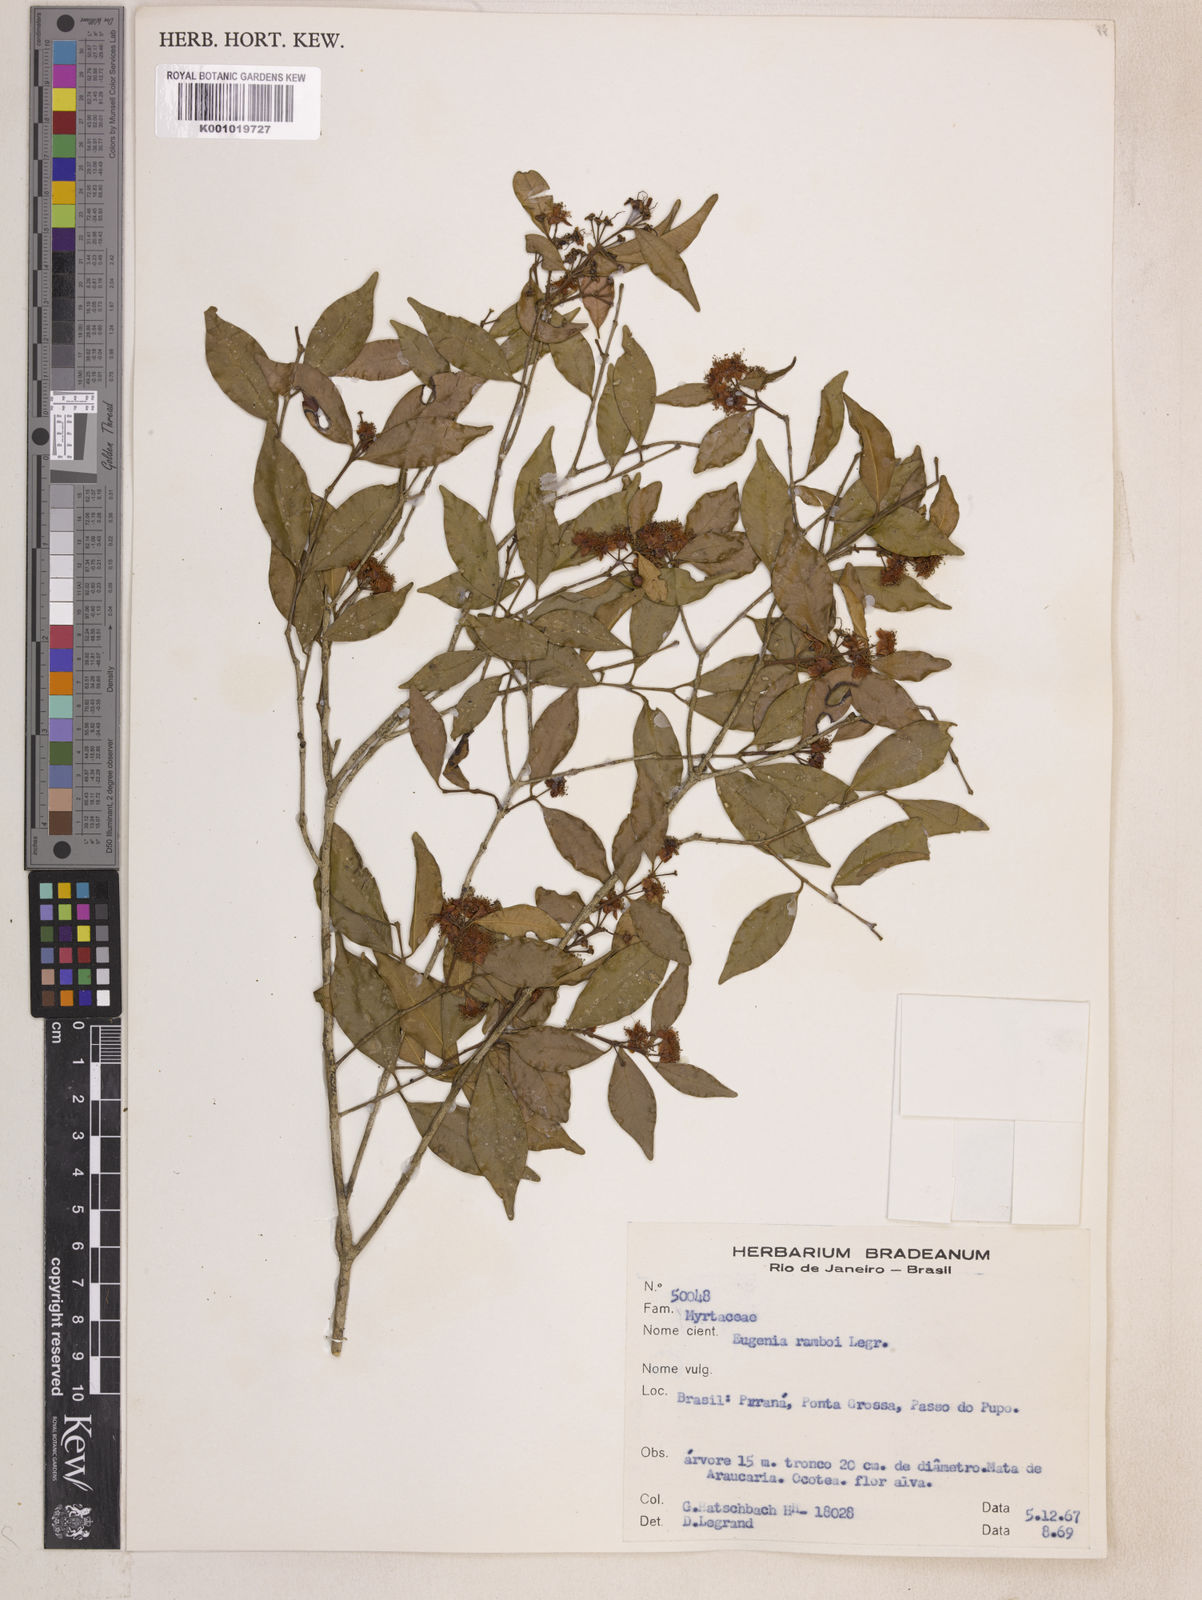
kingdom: Plantae
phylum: Tracheophyta
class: Magnoliopsida
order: Myrtales
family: Myrtaceae
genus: Eugenia
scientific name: Eugenia ramboi
